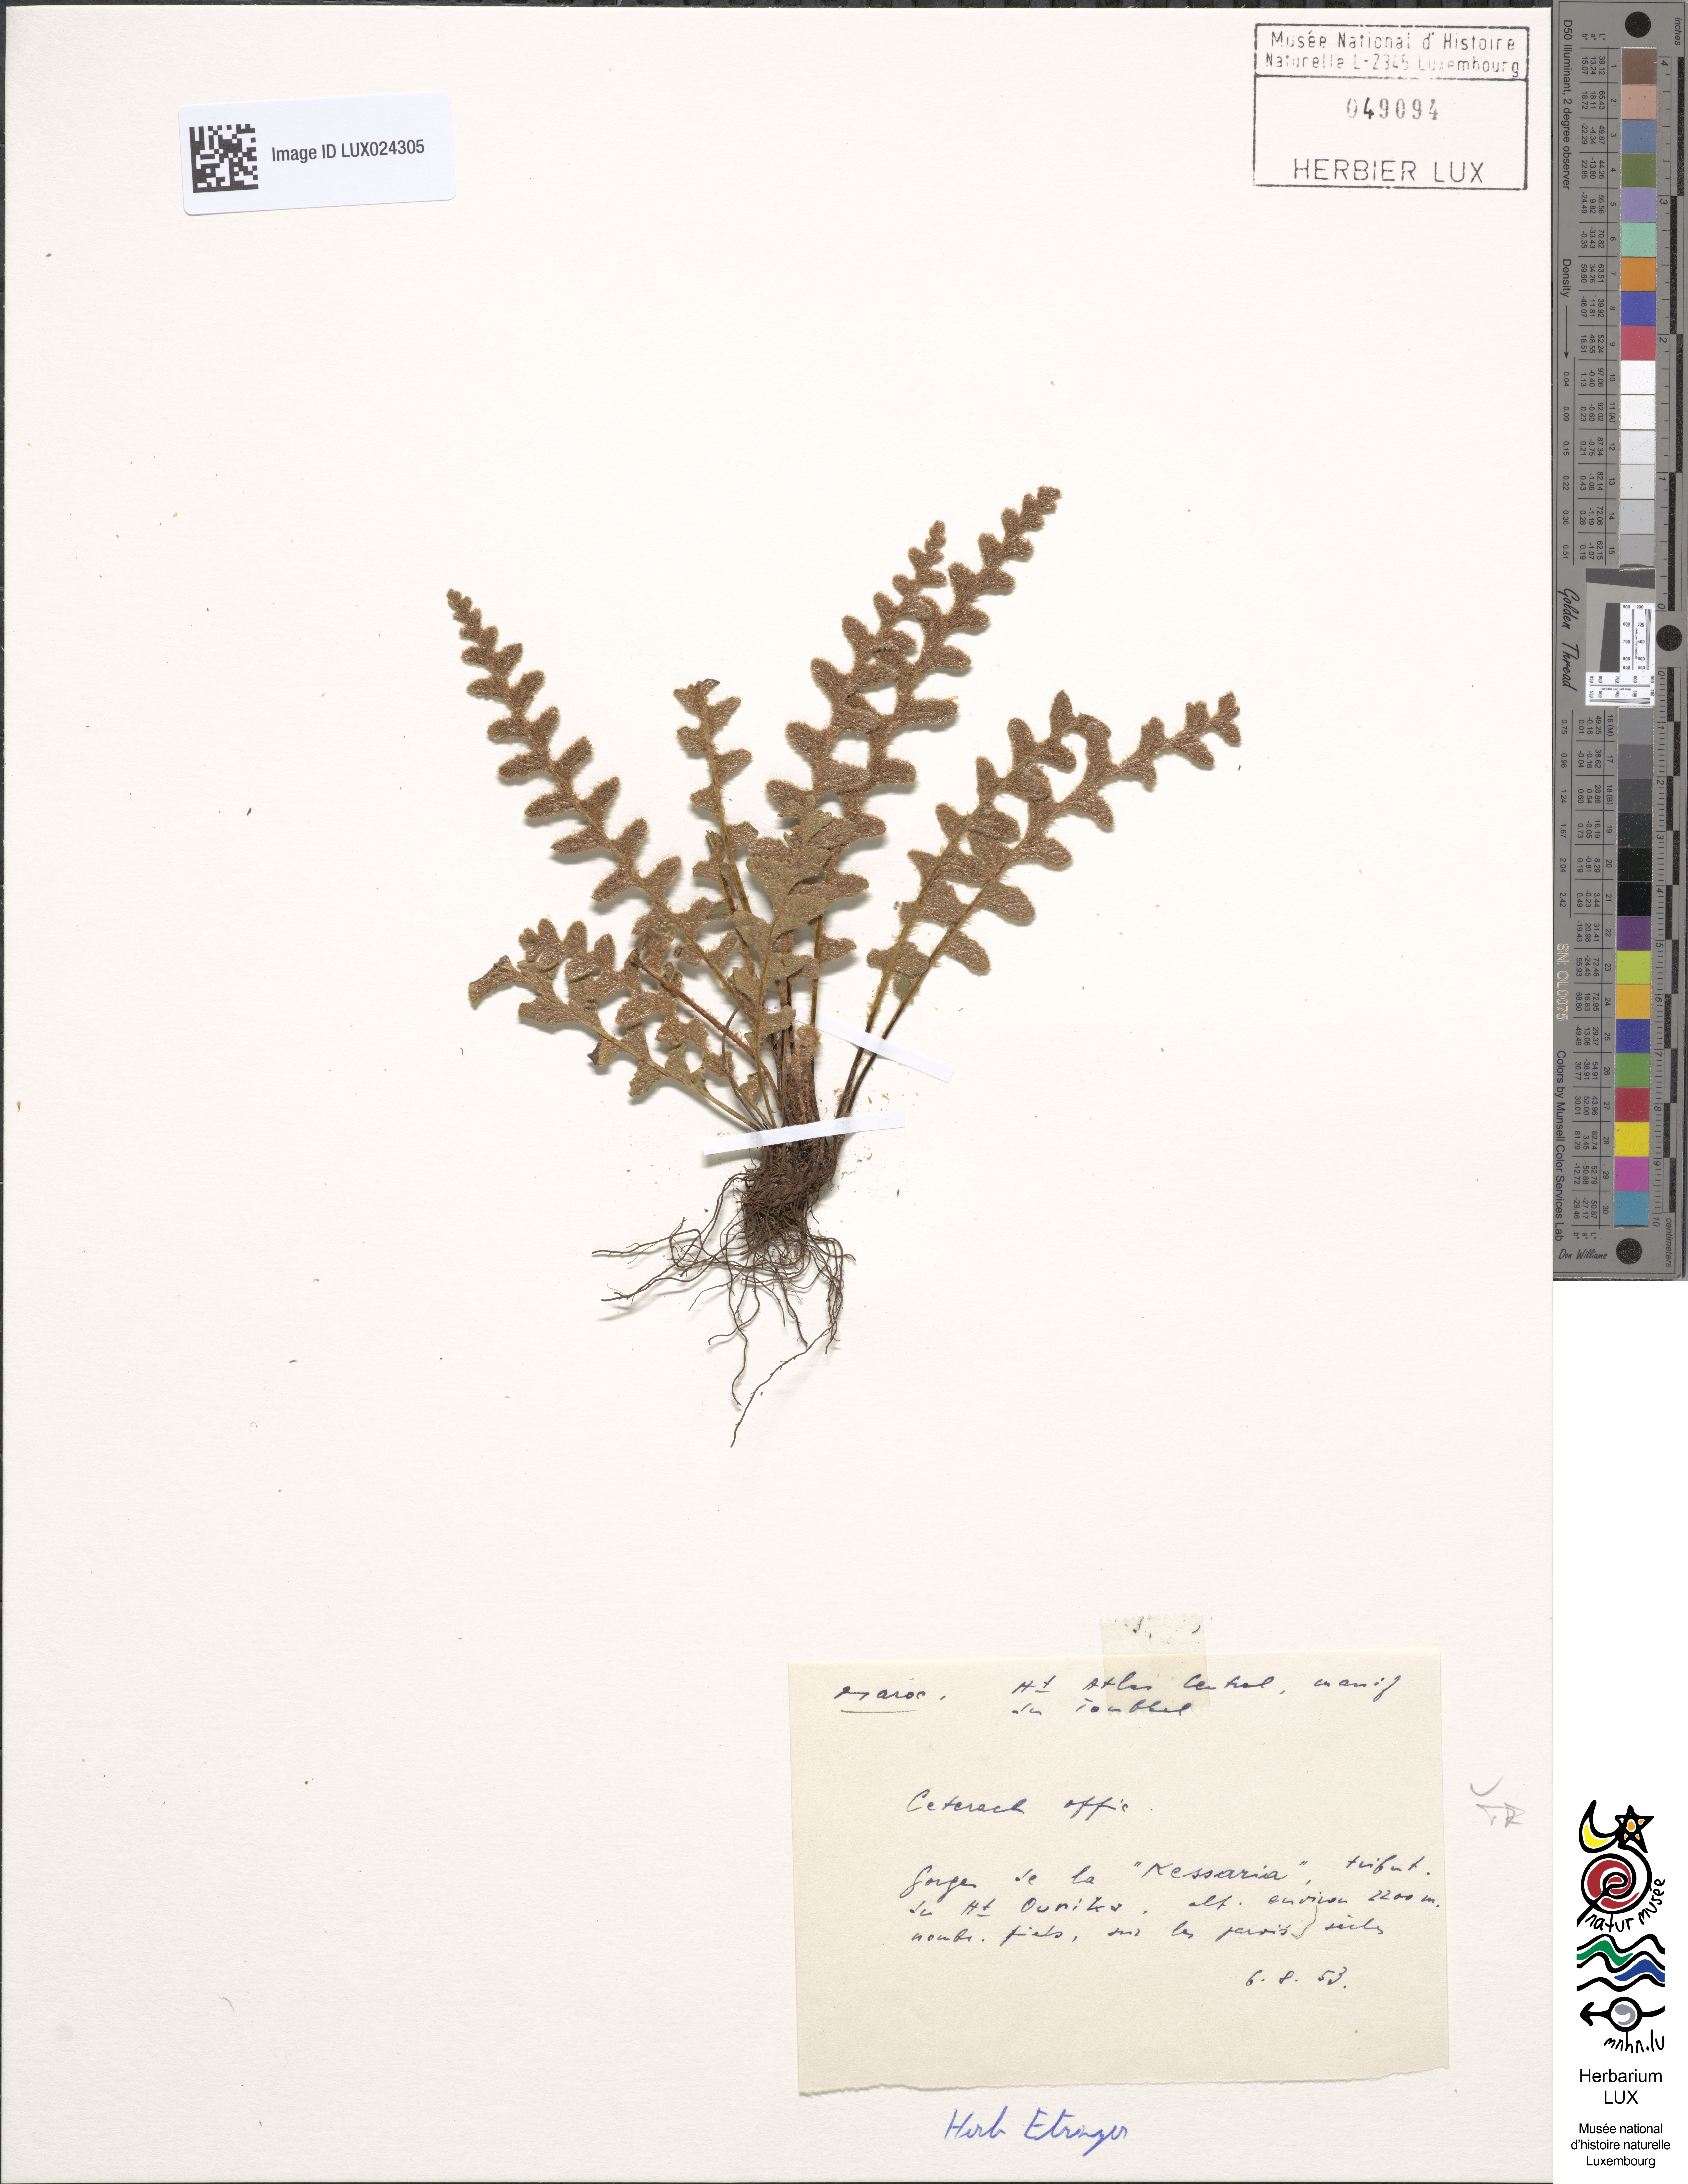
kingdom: Plantae
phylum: Tracheophyta
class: Polypodiopsida
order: Polypodiales
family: Aspleniaceae
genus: Asplenium
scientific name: Asplenium ceterach
